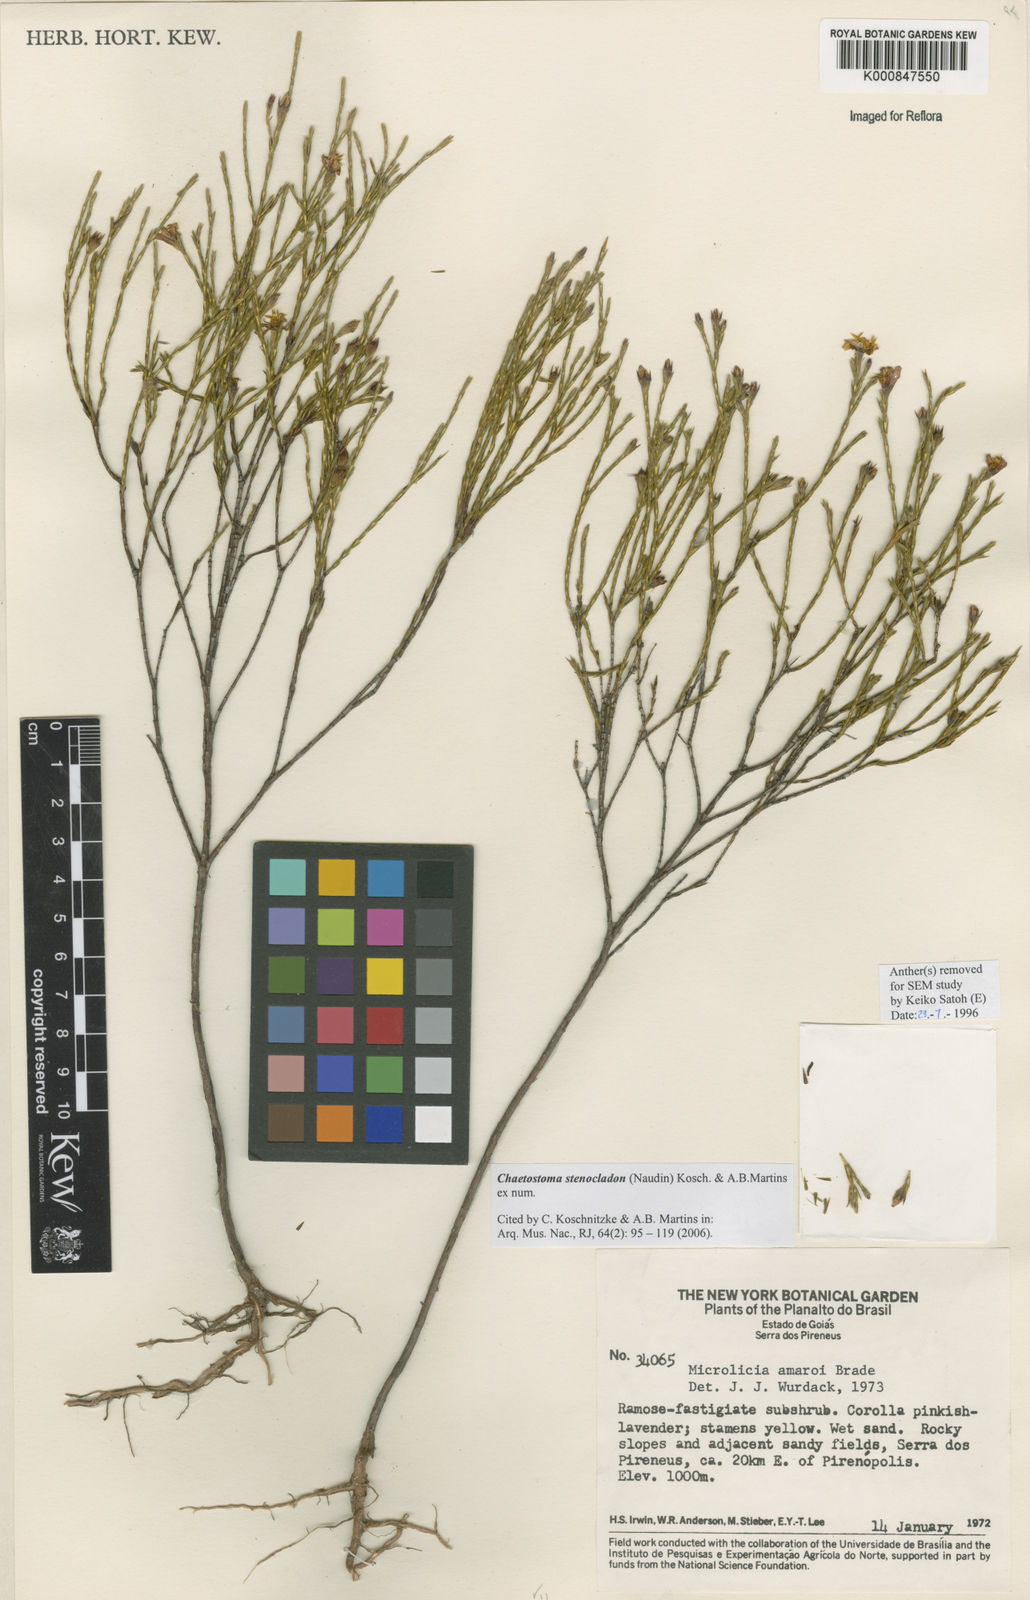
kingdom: Plantae
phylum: Tracheophyta
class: Magnoliopsida
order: Myrtales
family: Melastomataceae
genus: Microlicia
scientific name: Microlicia stenocladon
